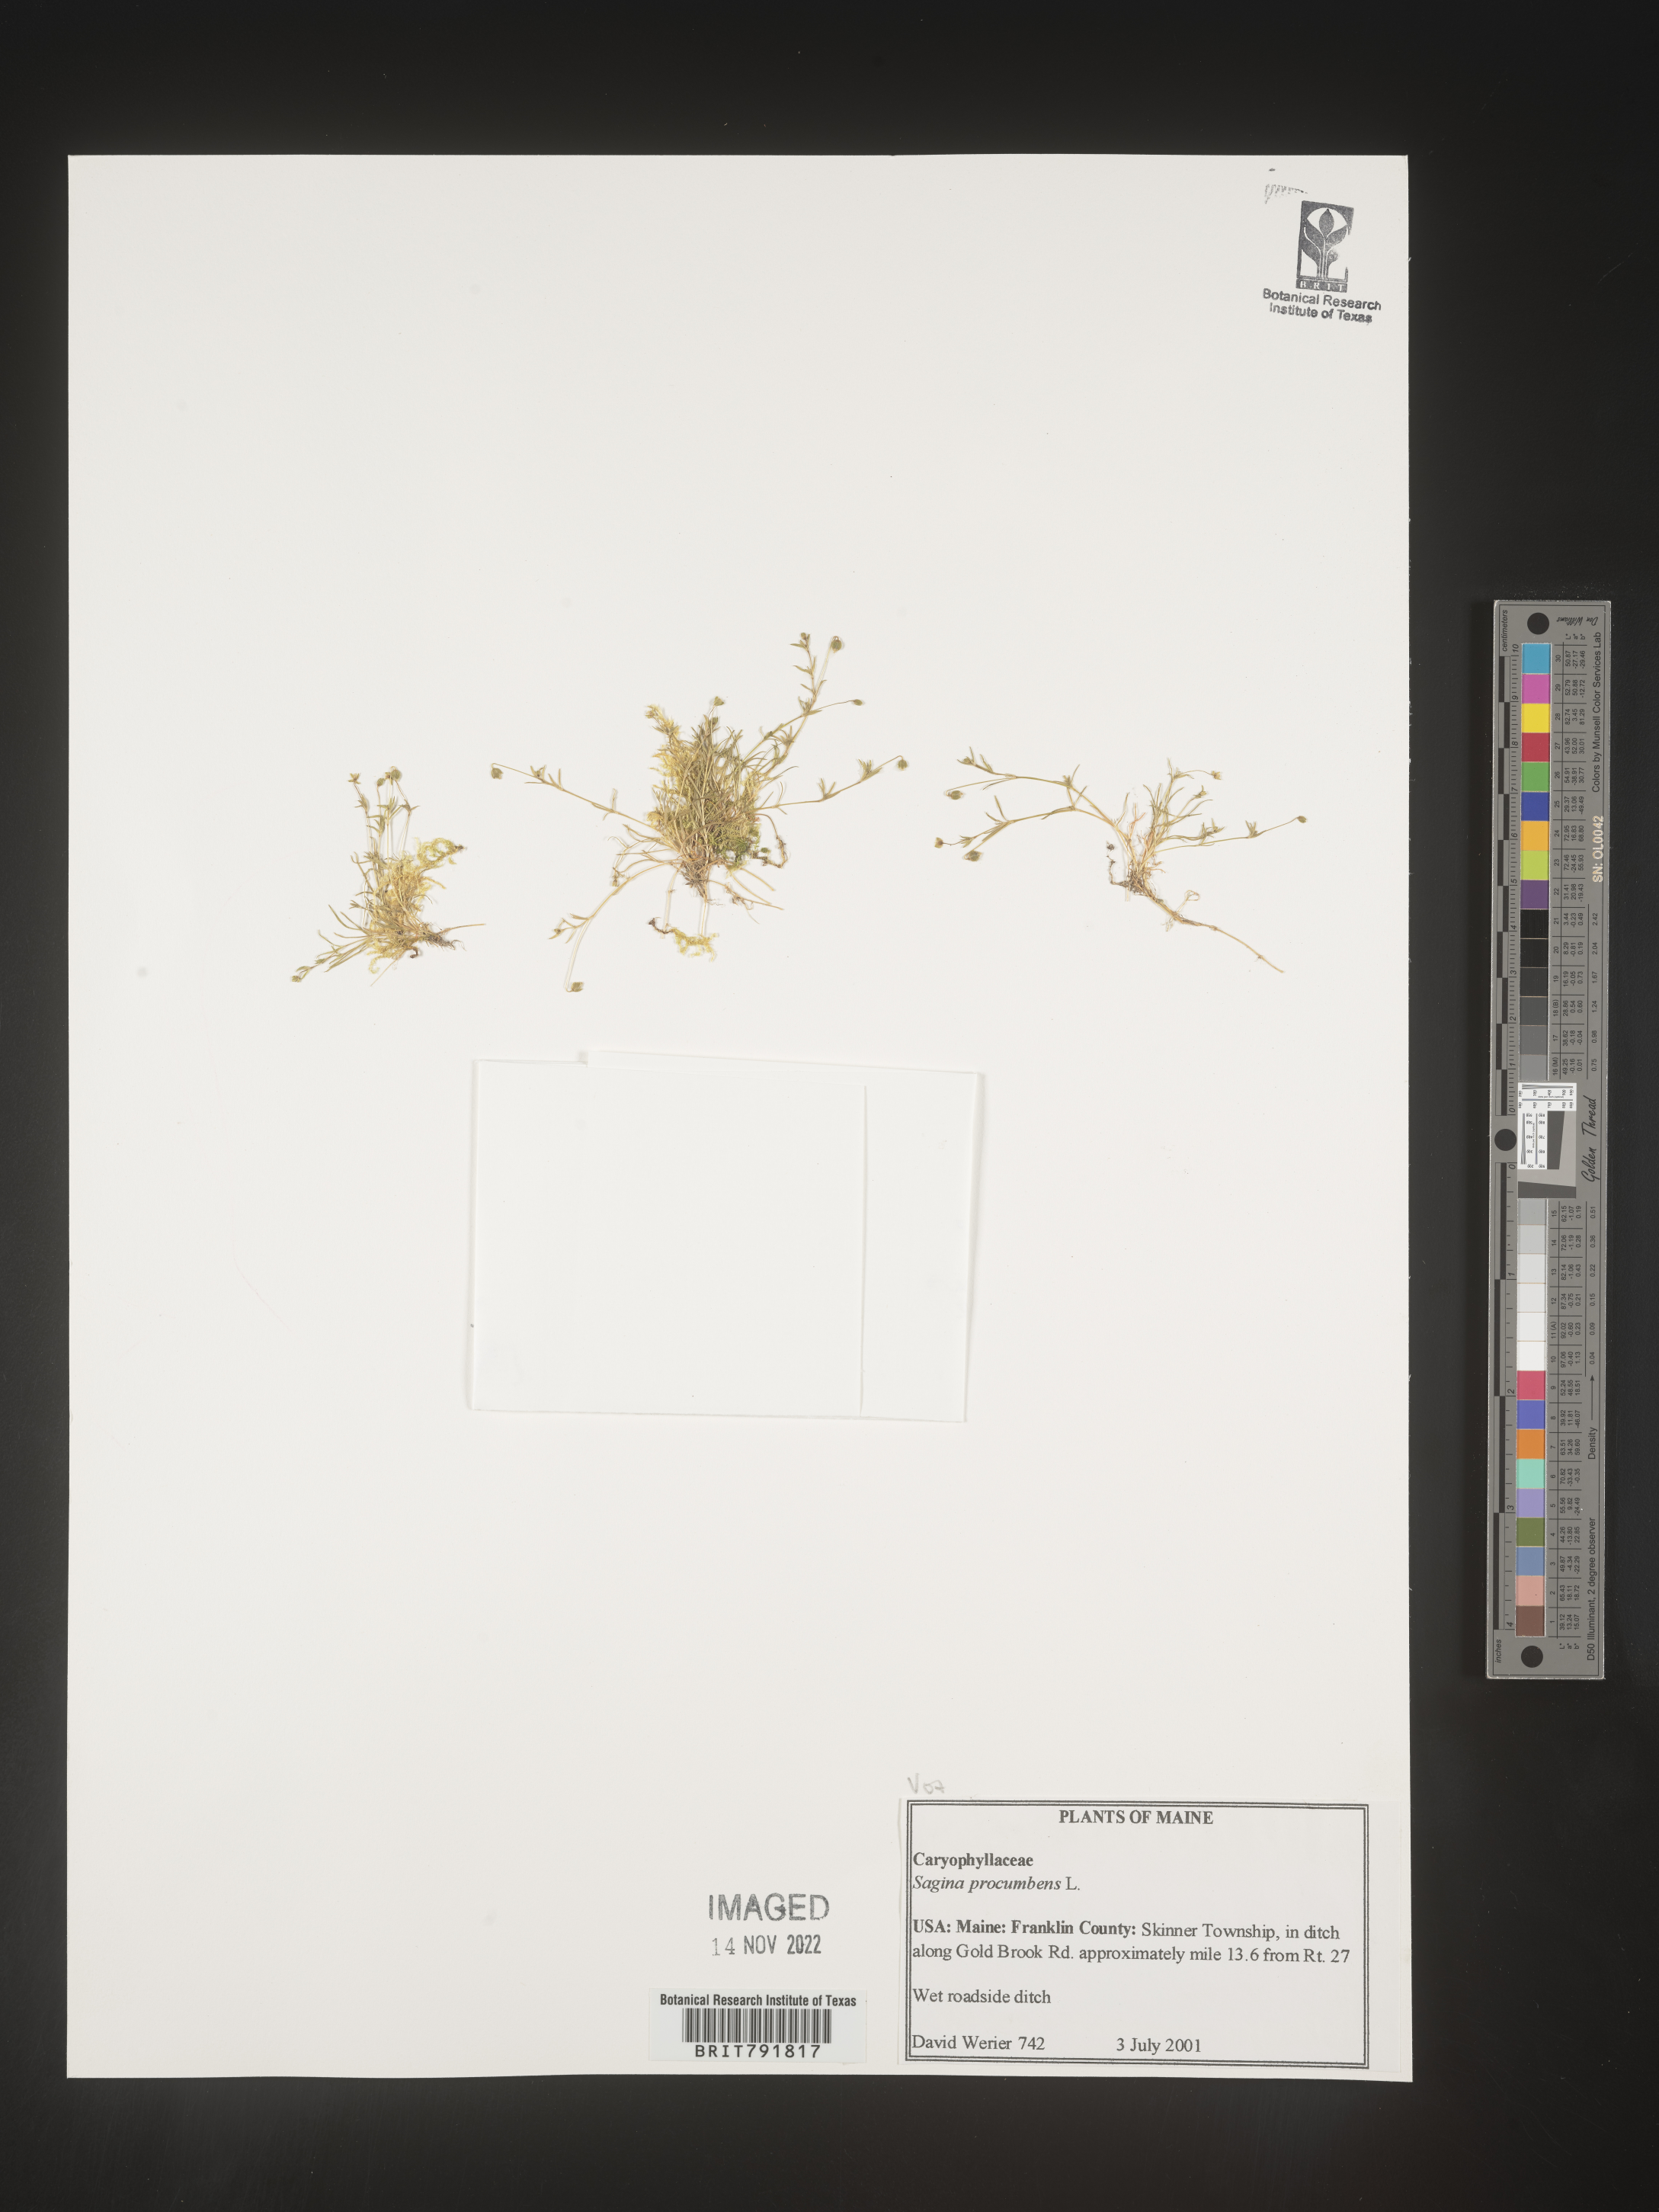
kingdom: Plantae
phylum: Tracheophyta
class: Magnoliopsida
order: Caryophyllales
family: Caryophyllaceae
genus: Sagina
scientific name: Sagina
